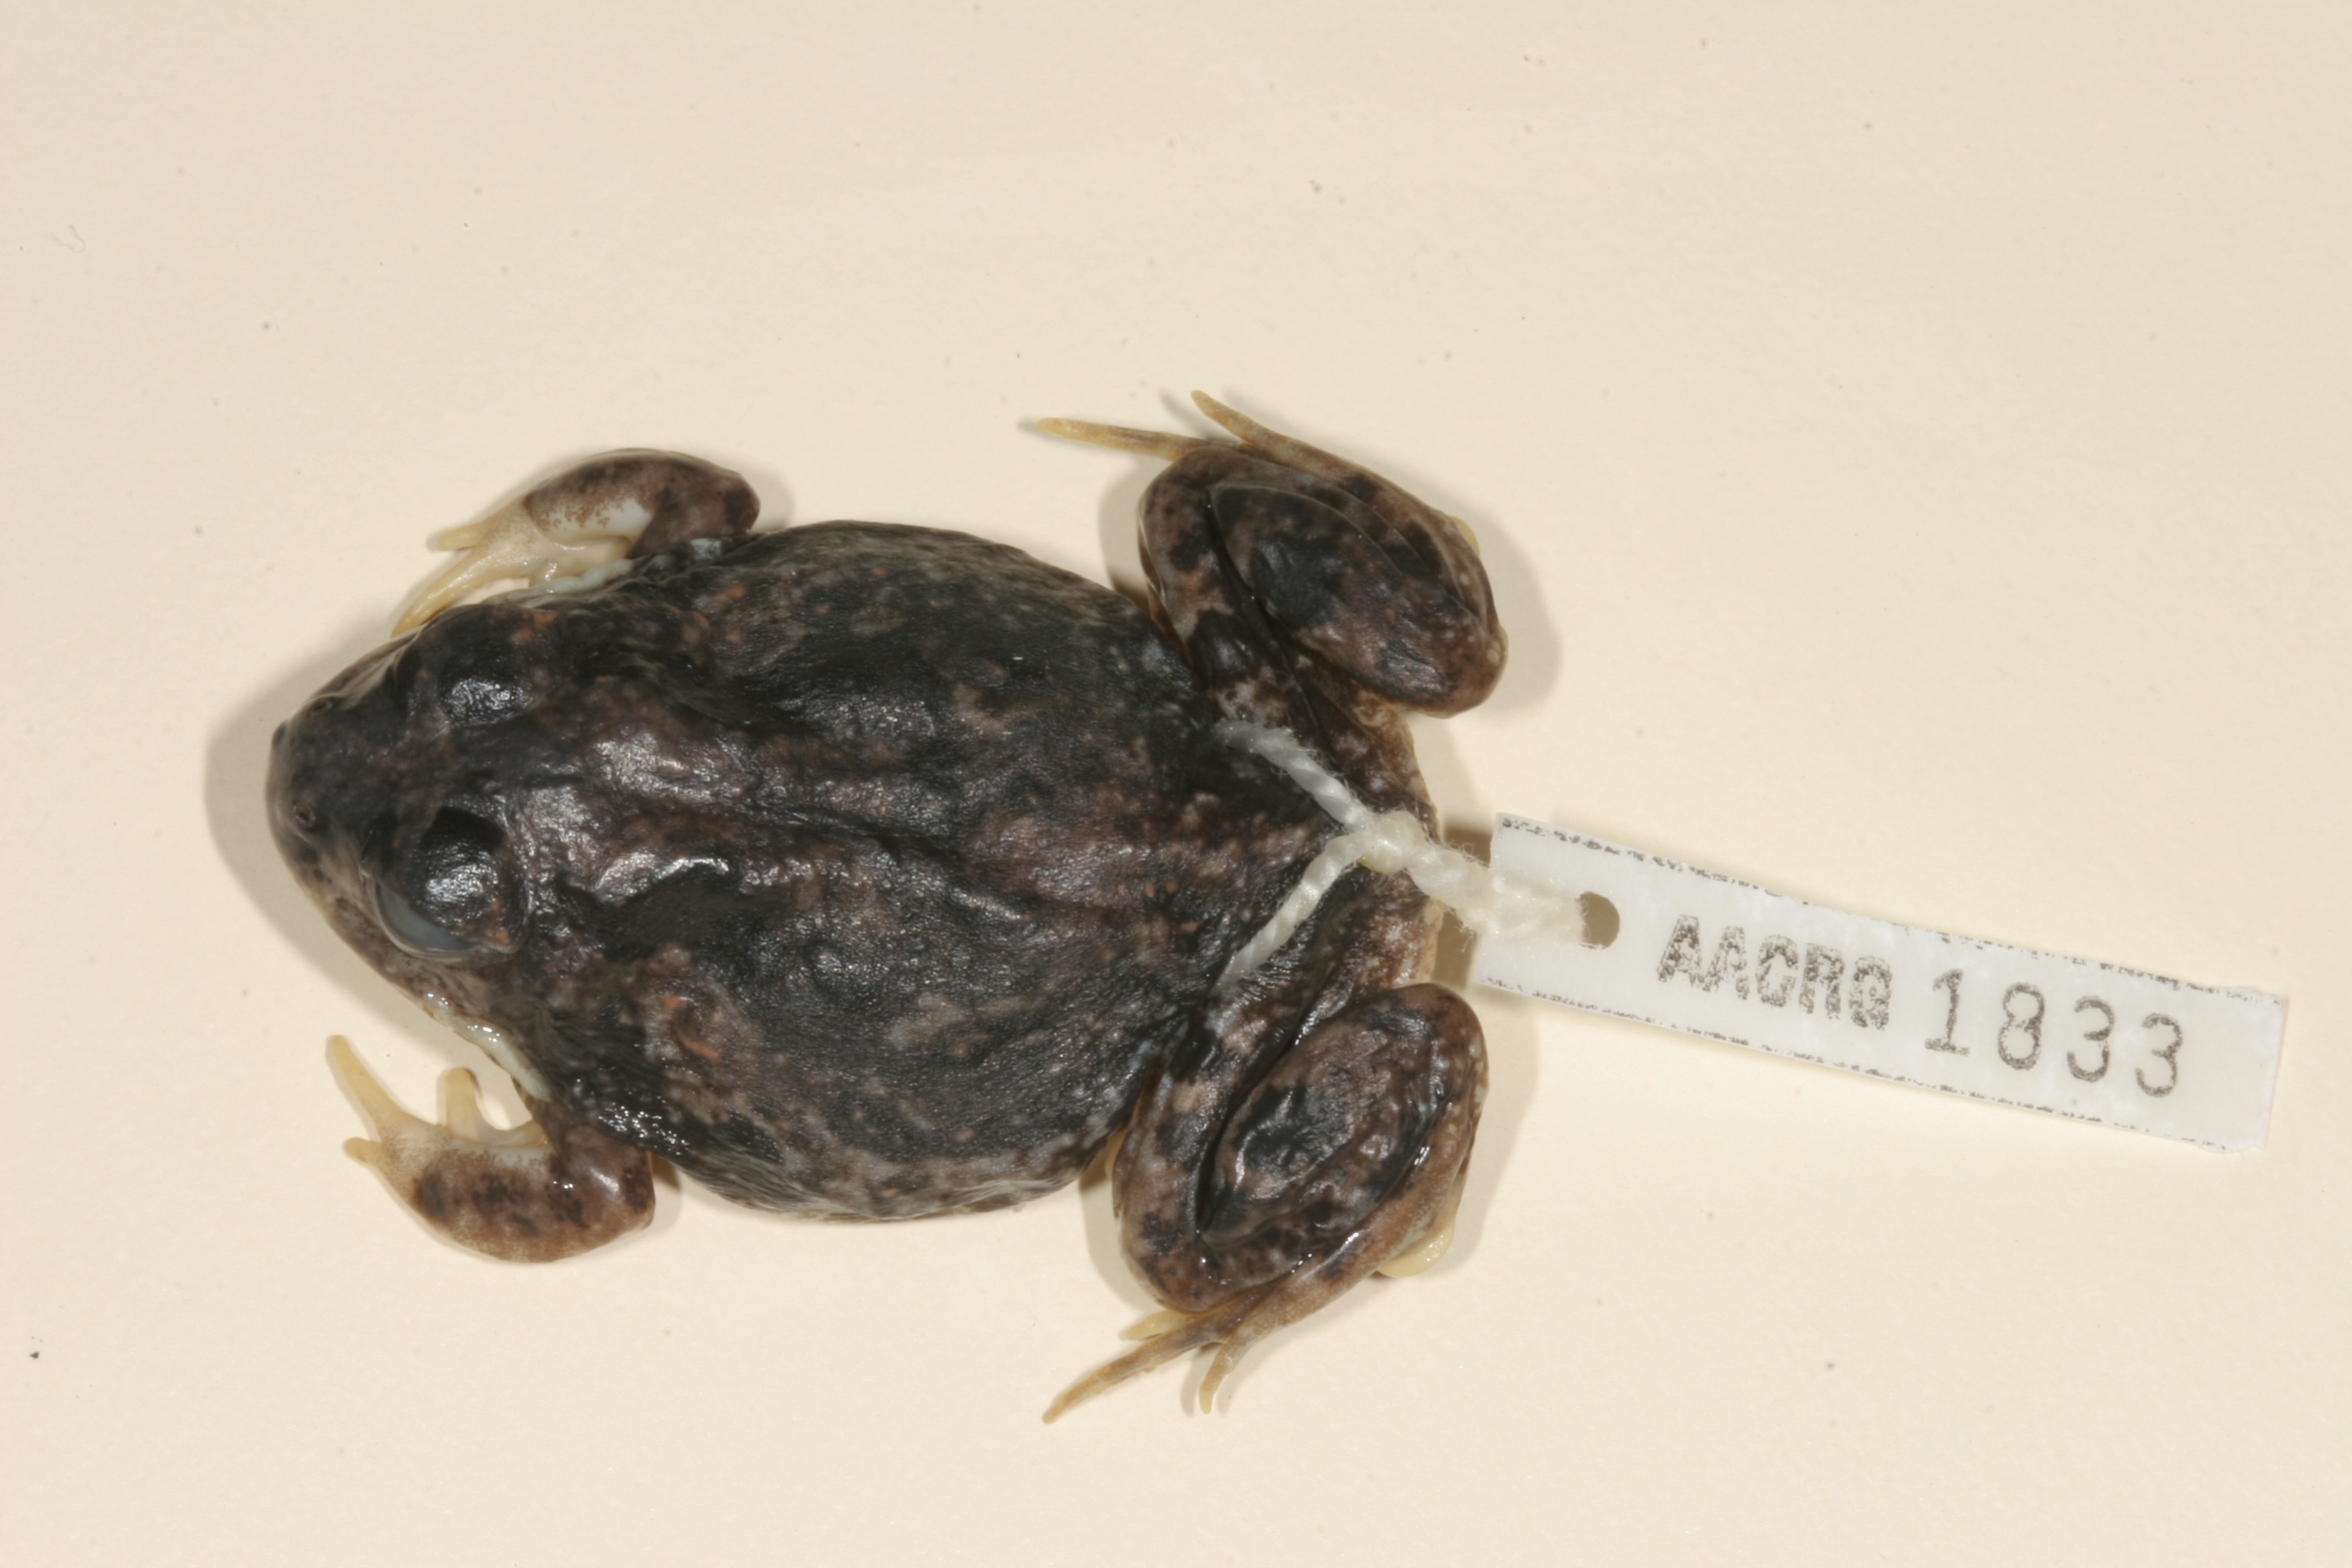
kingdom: Animalia
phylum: Chordata
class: Amphibia
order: Anura
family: Pyxicephalidae
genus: Tomopterna
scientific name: Tomopterna krugerensis
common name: Knocking sand frog
